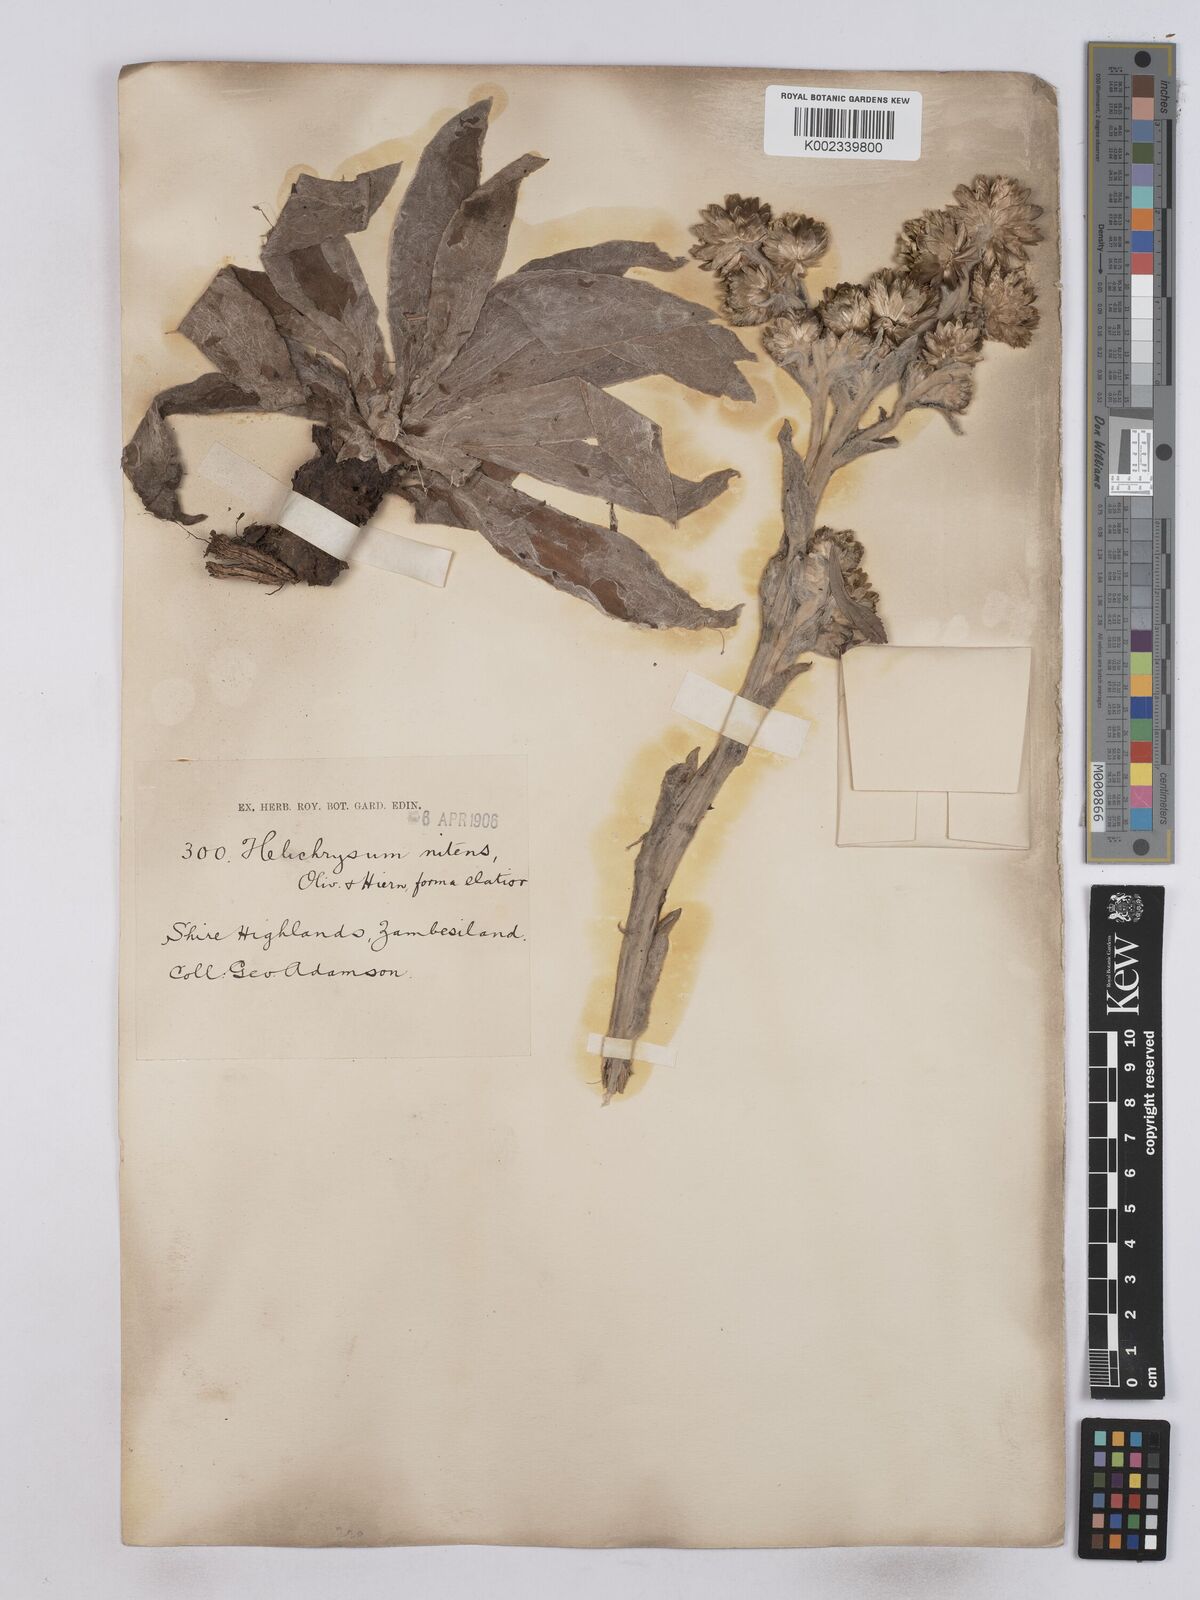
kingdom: Plantae
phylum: Tracheophyta
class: Magnoliopsida
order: Asterales
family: Asteraceae
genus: Helichrysum
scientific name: Helichrysum nitens
